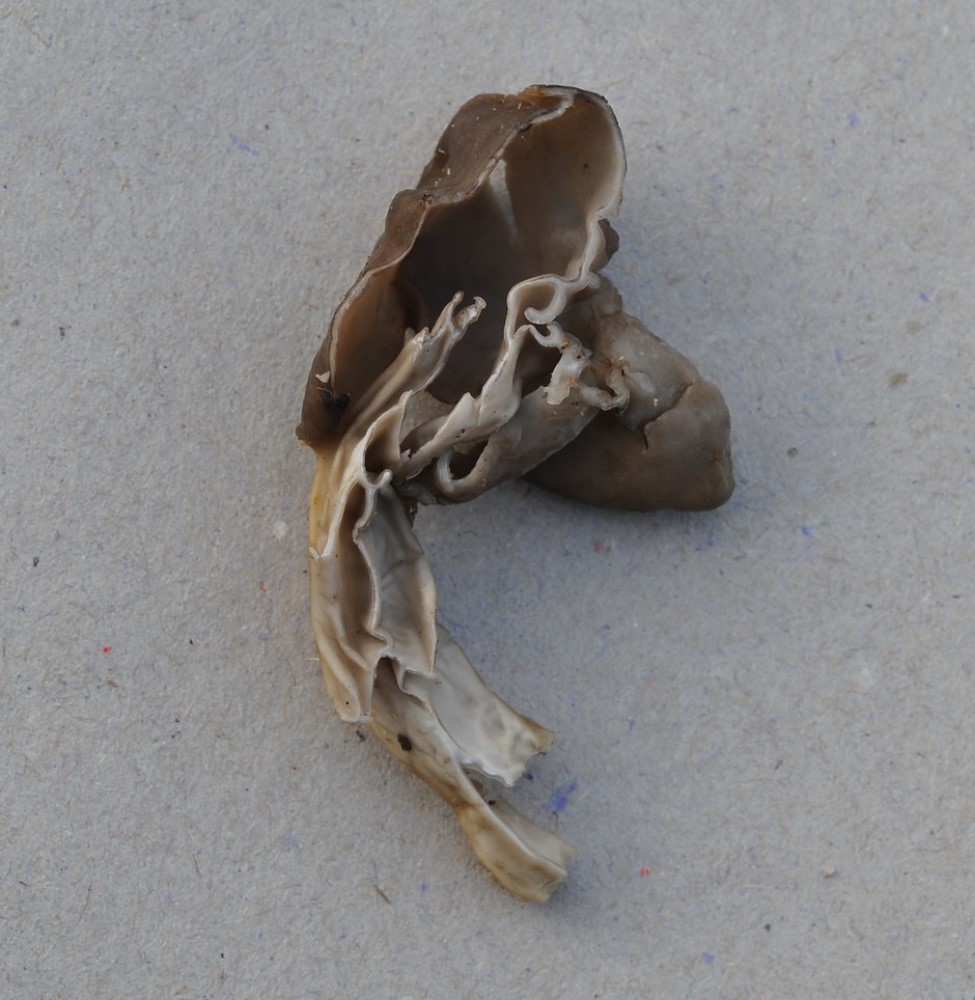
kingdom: Fungi
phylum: Ascomycota
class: Pezizomycetes
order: Pezizales
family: Helvellaceae
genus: Helvella
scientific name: Helvella lacunosa
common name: grubet foldhat
